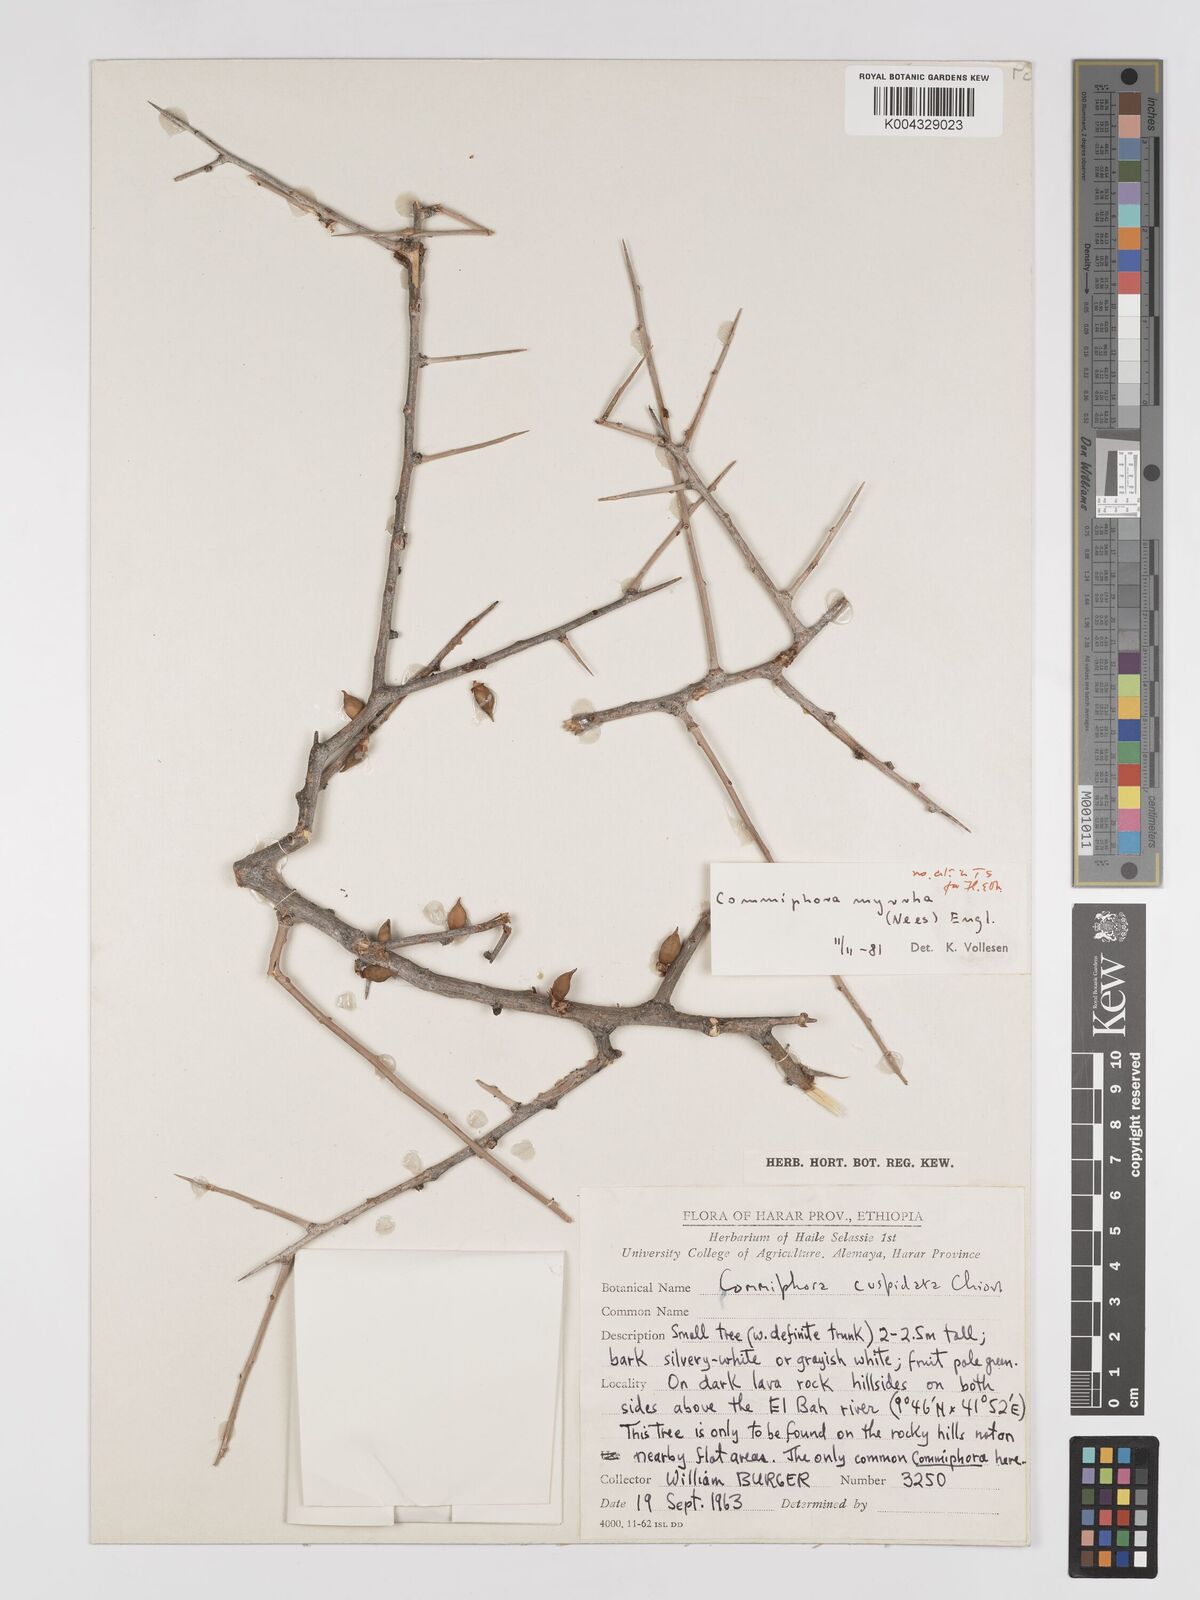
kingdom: Plantae
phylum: Tracheophyta
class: Magnoliopsida
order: Sapindales
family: Burseraceae
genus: Commiphora
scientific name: Commiphora myrrha
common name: African myrrh
